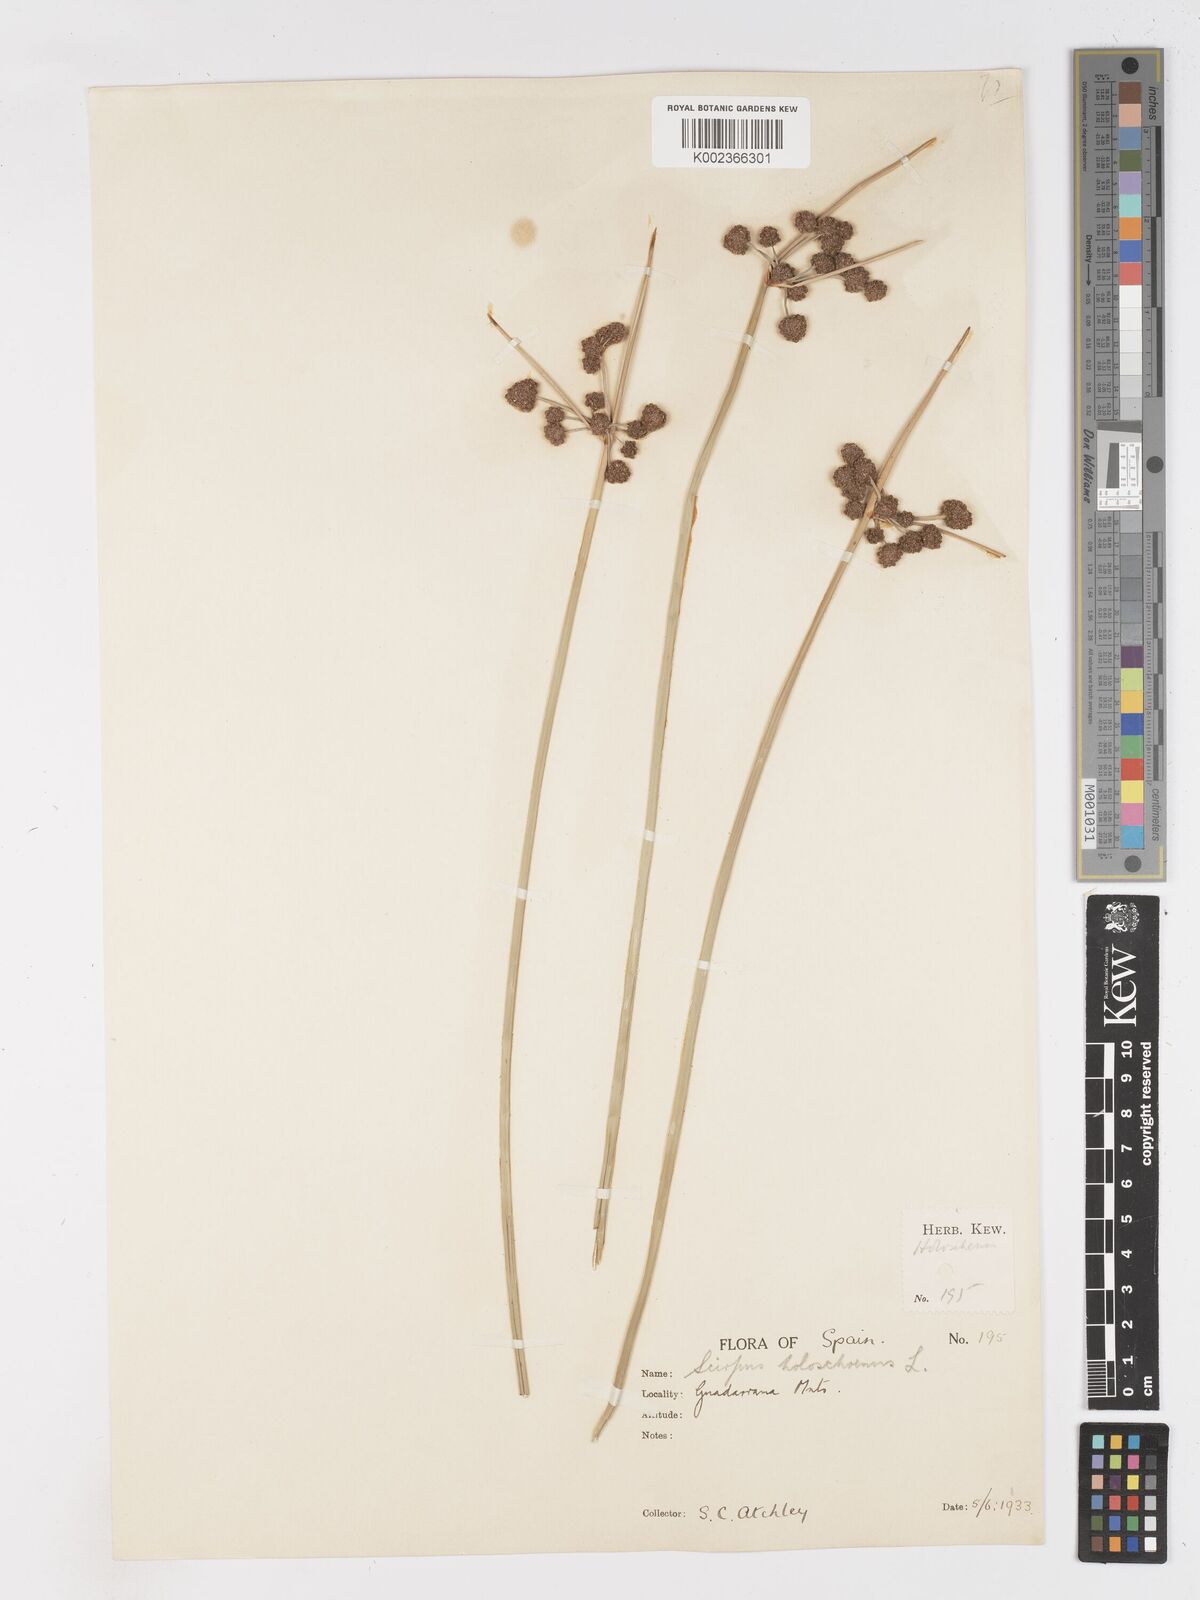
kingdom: Plantae
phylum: Tracheophyta
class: Liliopsida
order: Poales
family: Cyperaceae
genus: Scirpoides
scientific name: Scirpoides holoschoenus
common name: Round-headed club-rush
